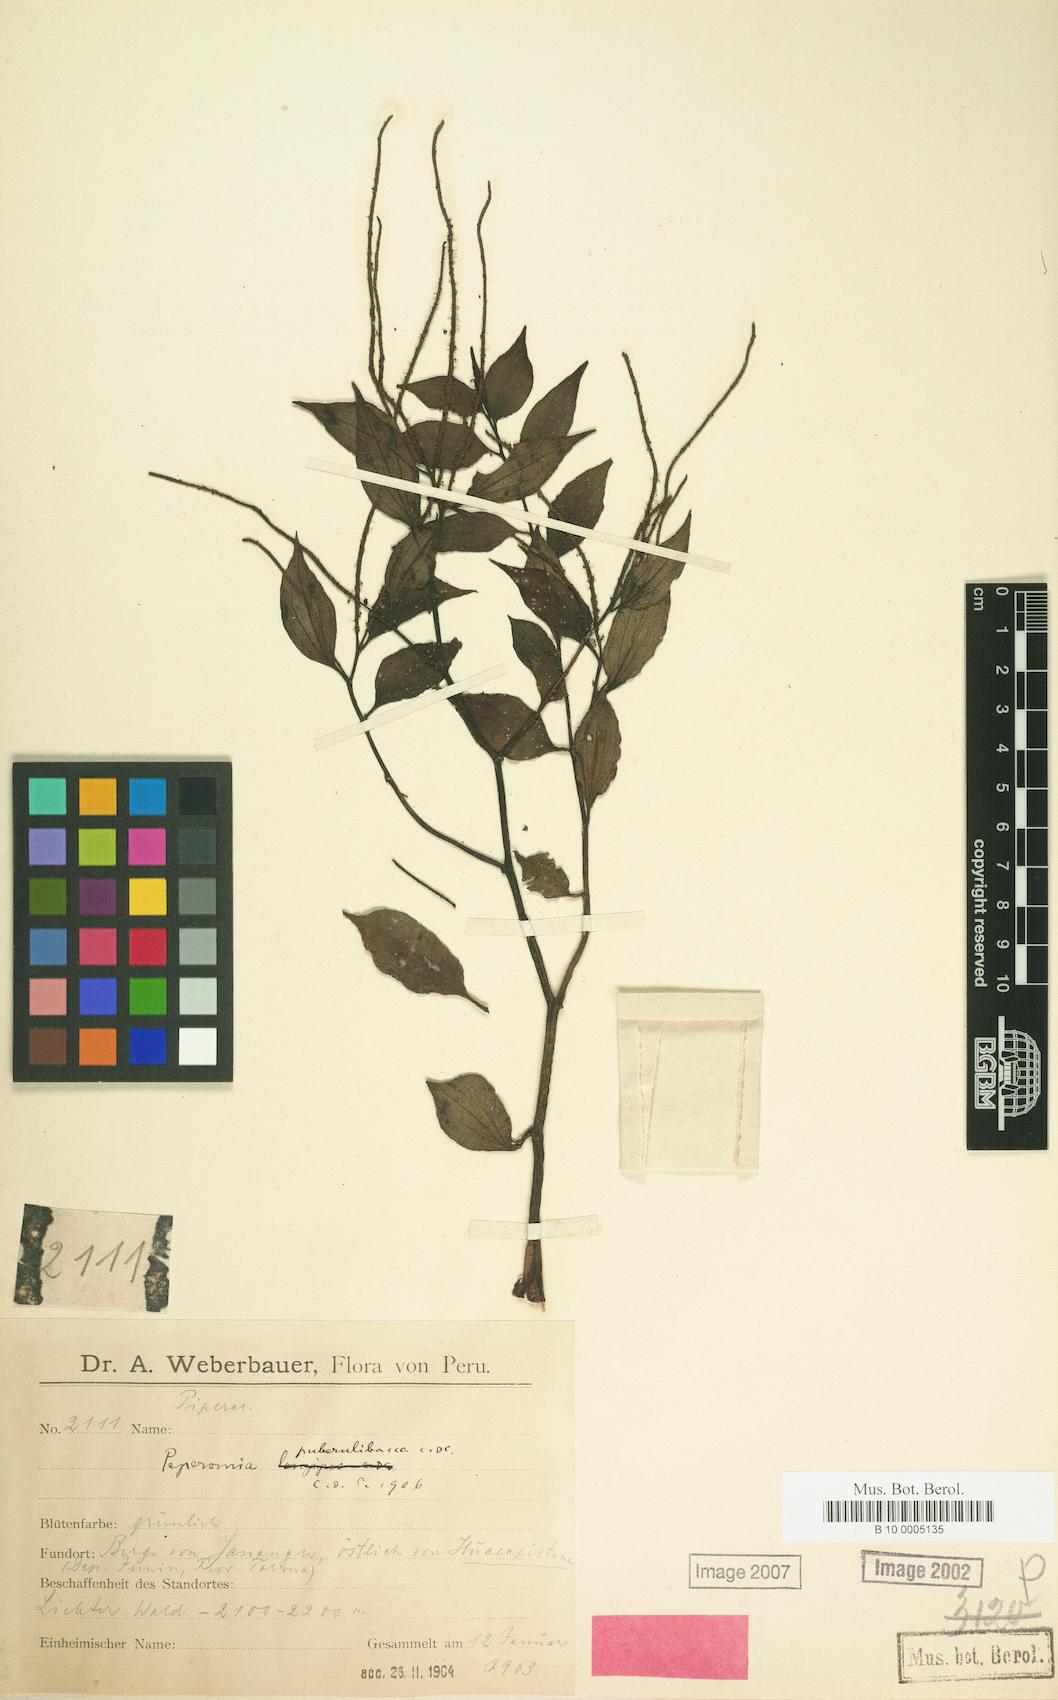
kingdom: Plantae
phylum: Tracheophyta
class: Magnoliopsida
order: Piperales
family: Piperaceae
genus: Peperomia
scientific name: Peperomia puberulibacca
